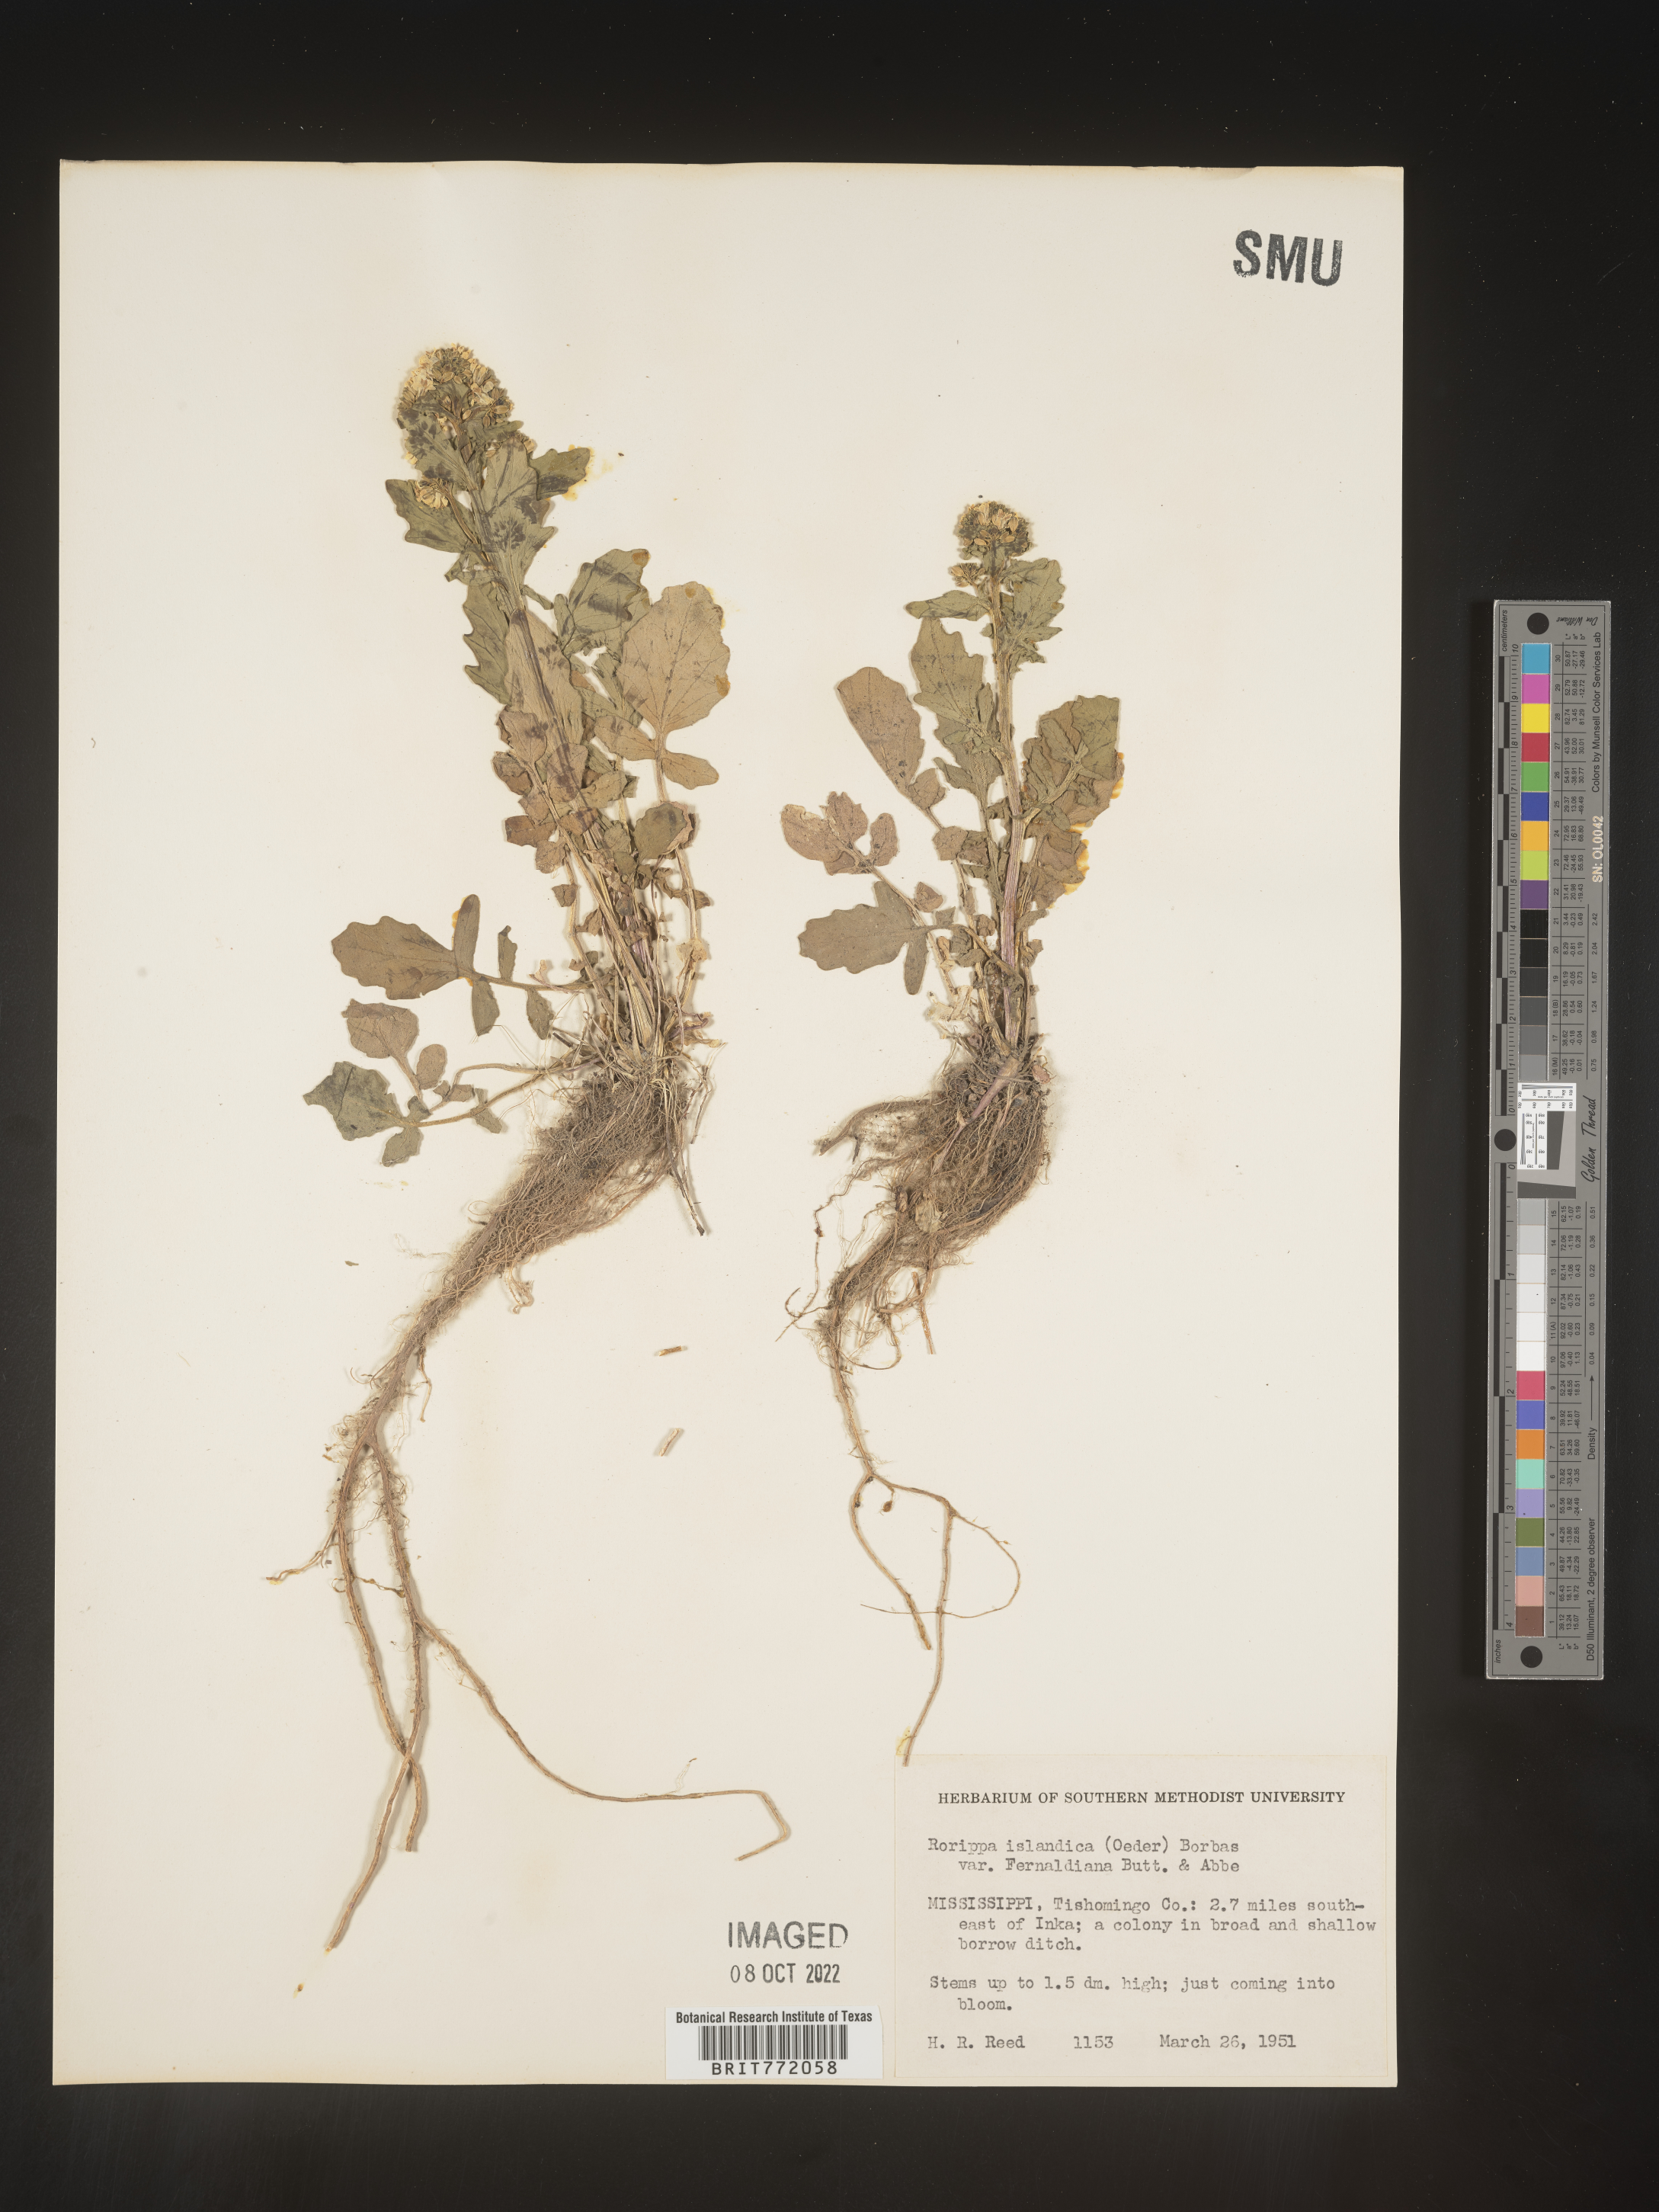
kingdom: Plantae
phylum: Tracheophyta
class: Magnoliopsida
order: Brassicales
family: Brassicaceae
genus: Barbarea
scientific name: Barbarea
